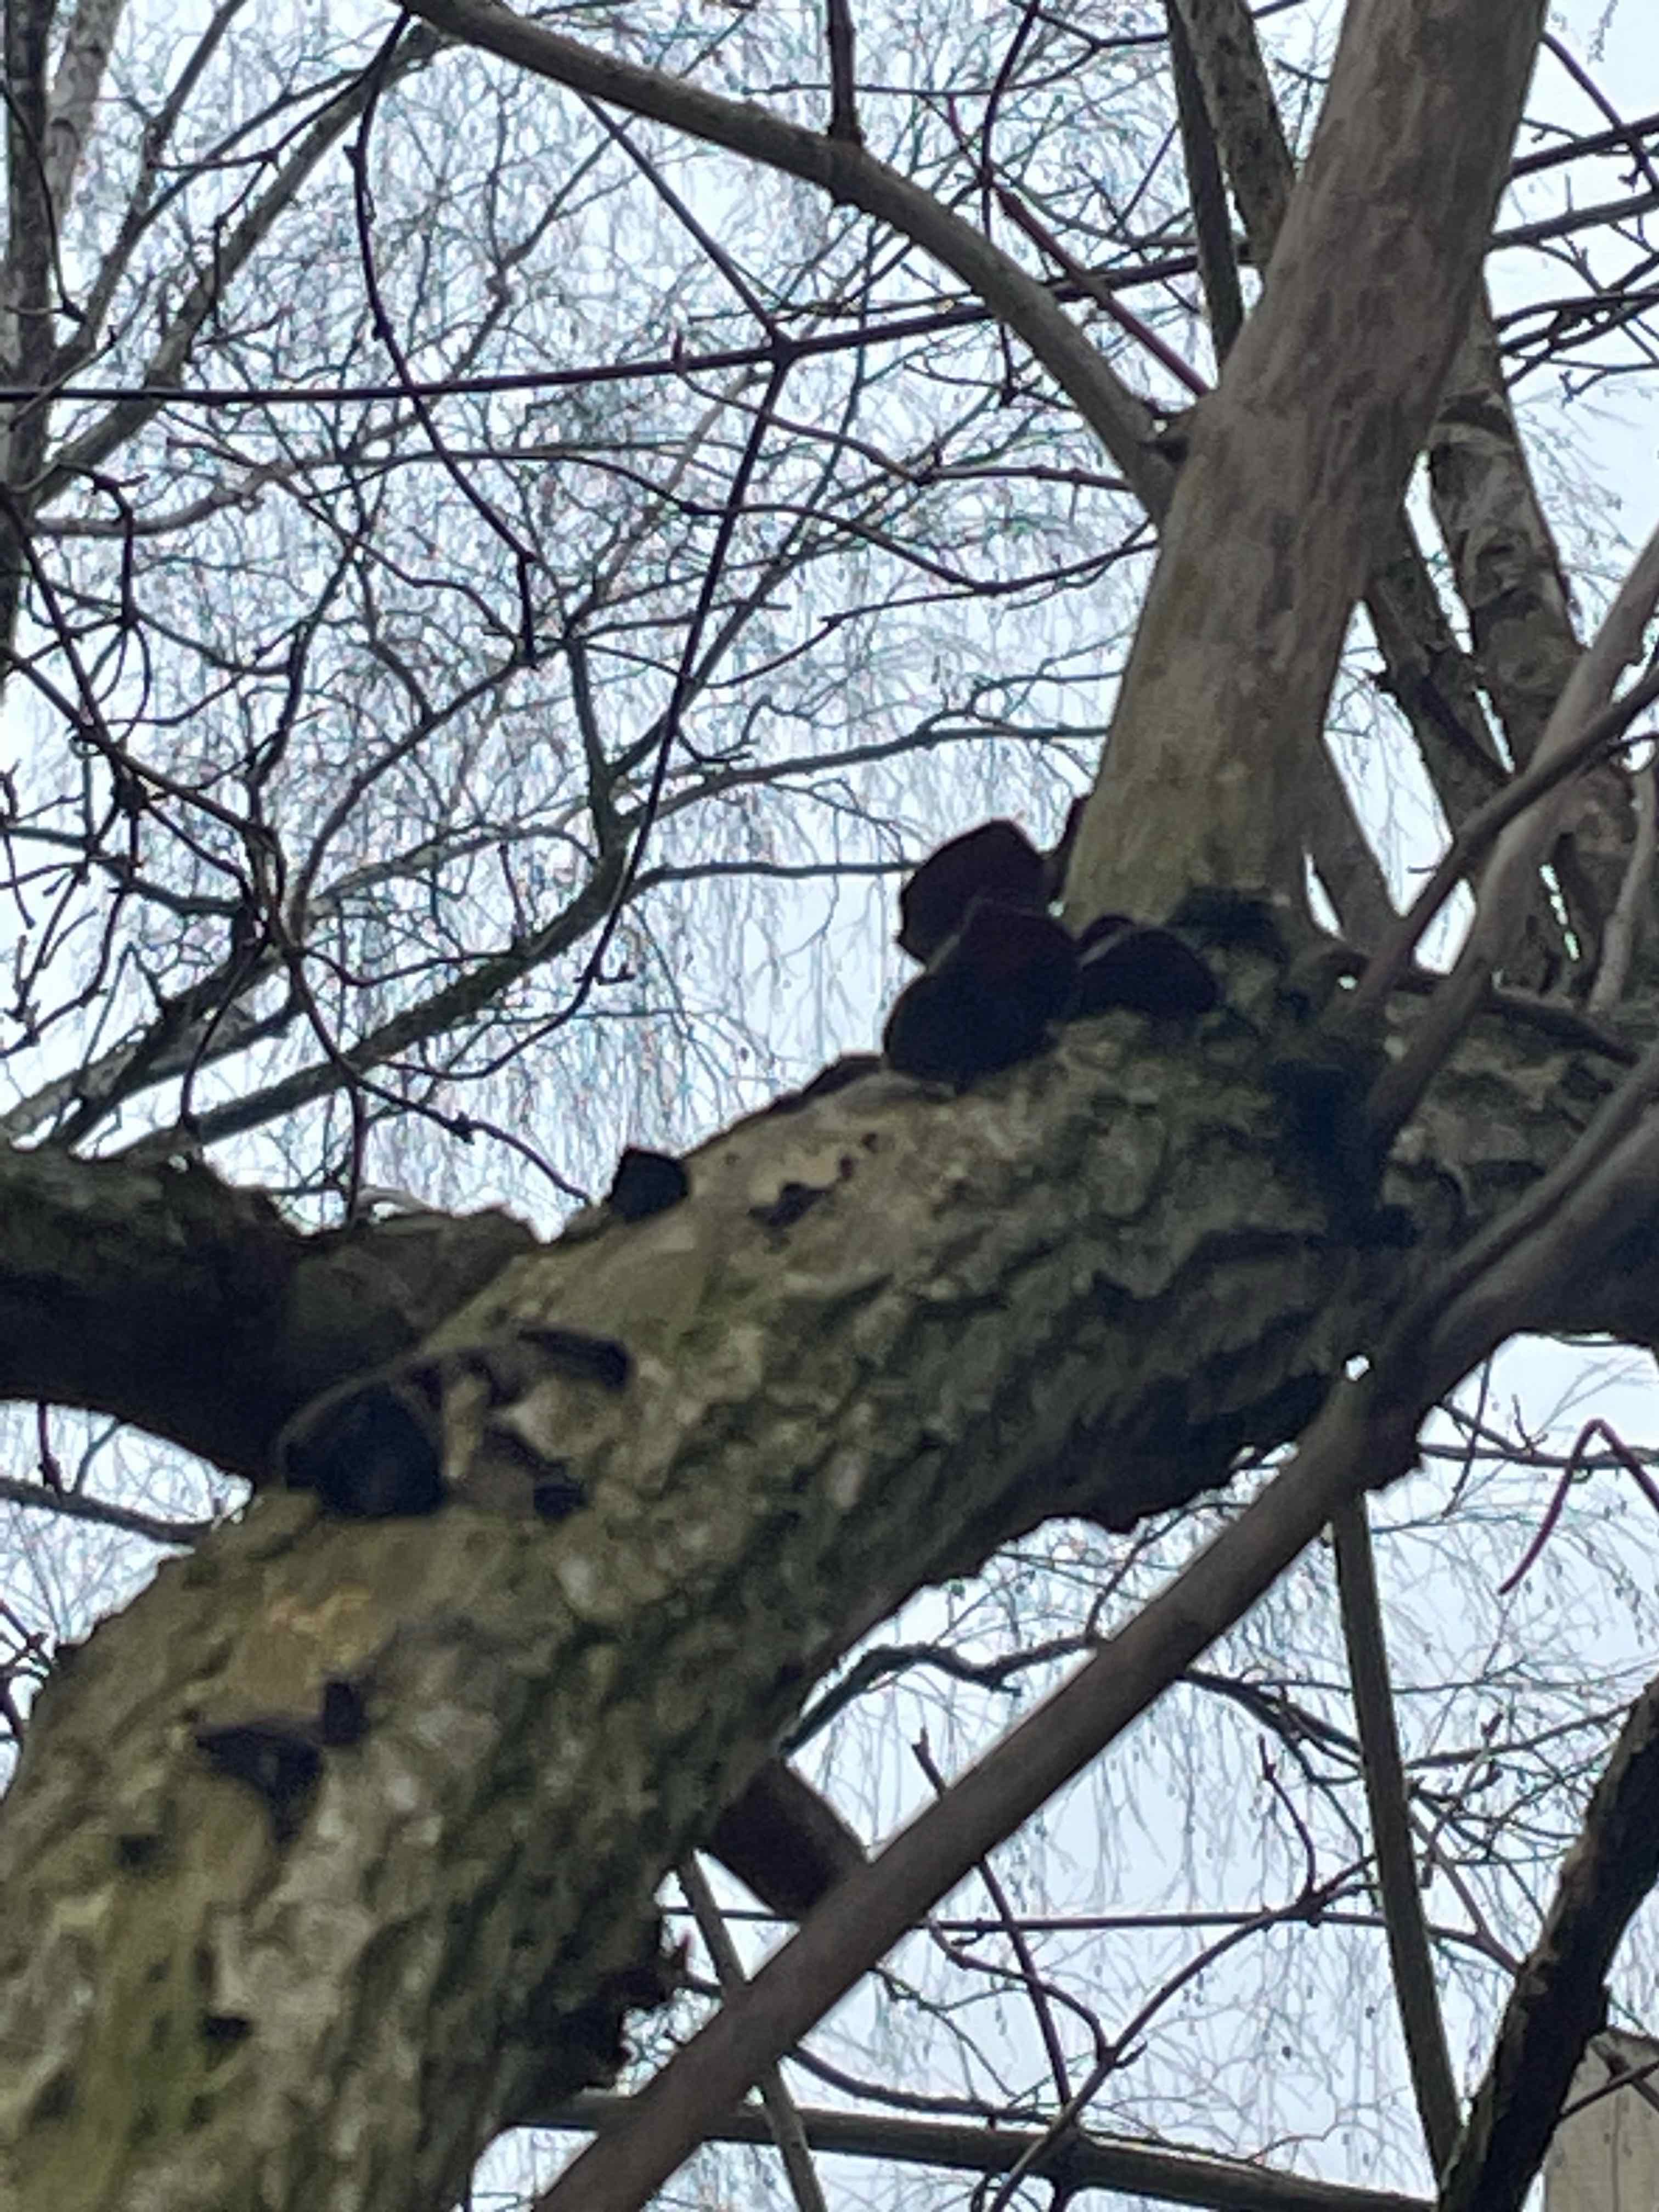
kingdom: Fungi
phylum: Basidiomycota
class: Agaricomycetes
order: Auriculariales
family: Auriculariaceae
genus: Auricularia
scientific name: Auricularia auricula-judae
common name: almindelig judasøre
